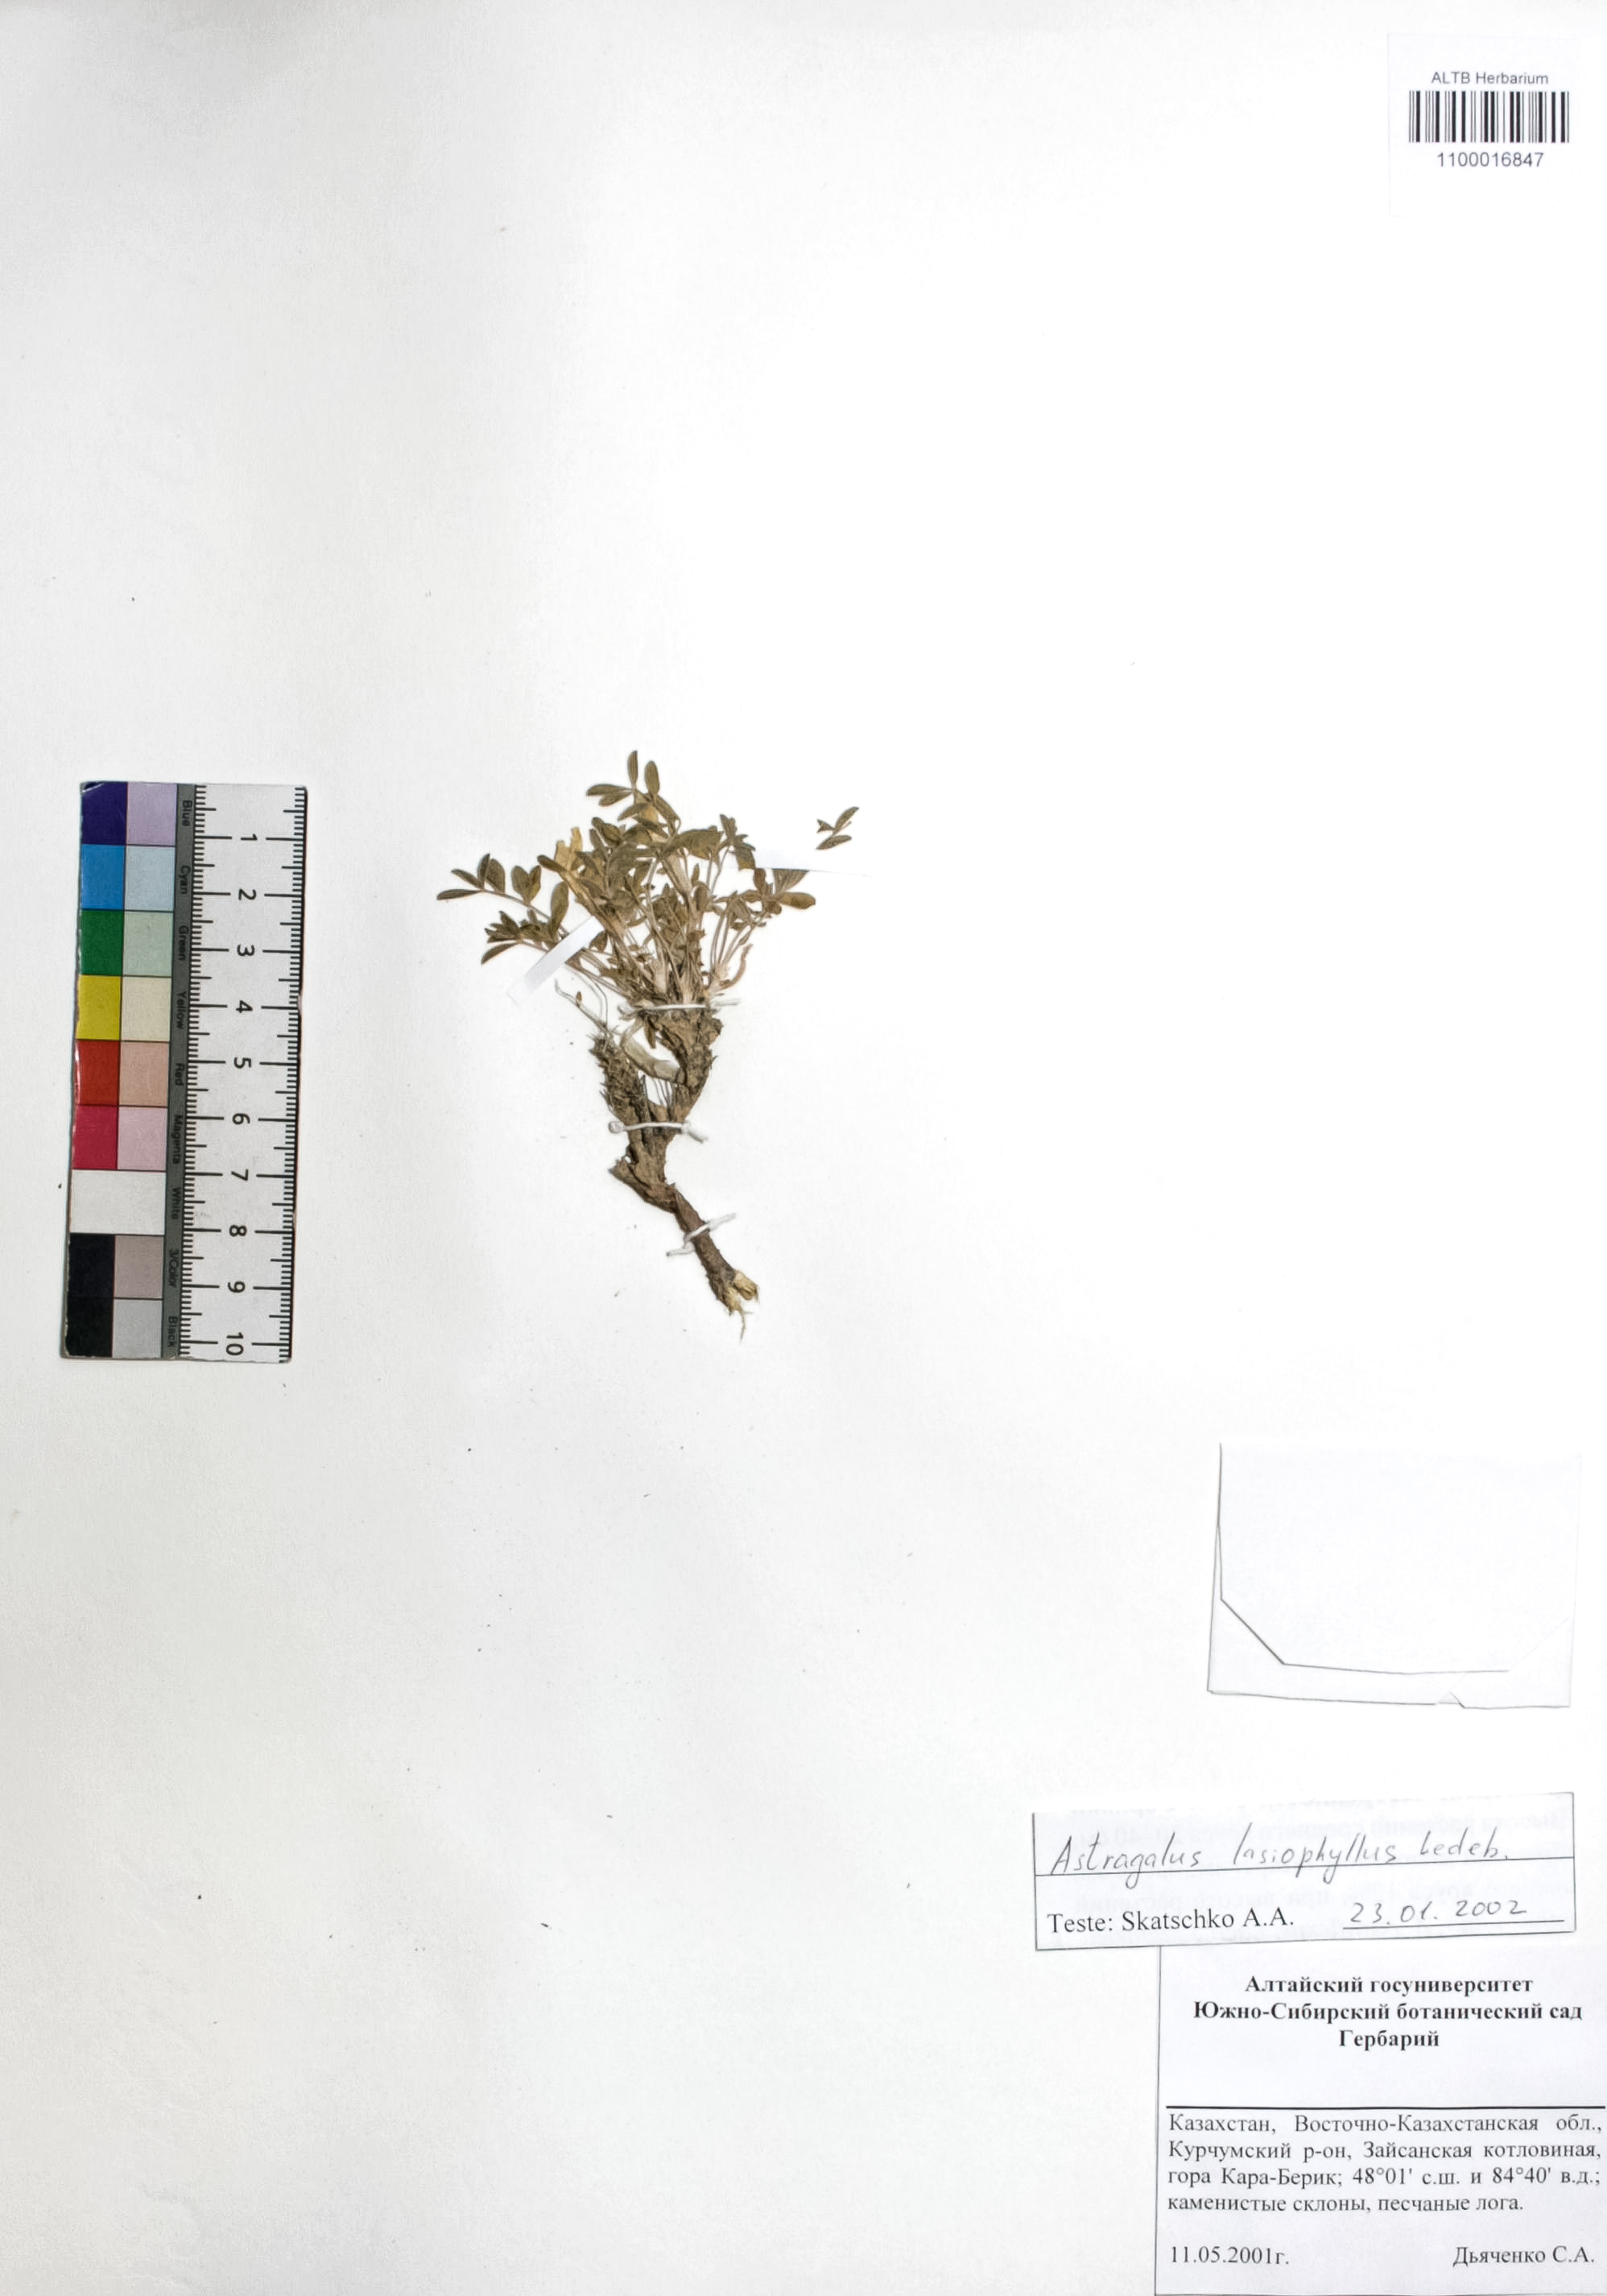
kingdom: Plantae
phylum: Tracheophyta
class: Magnoliopsida
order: Fabales
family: Fabaceae
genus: Astragalus
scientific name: Astragalus pallasii
